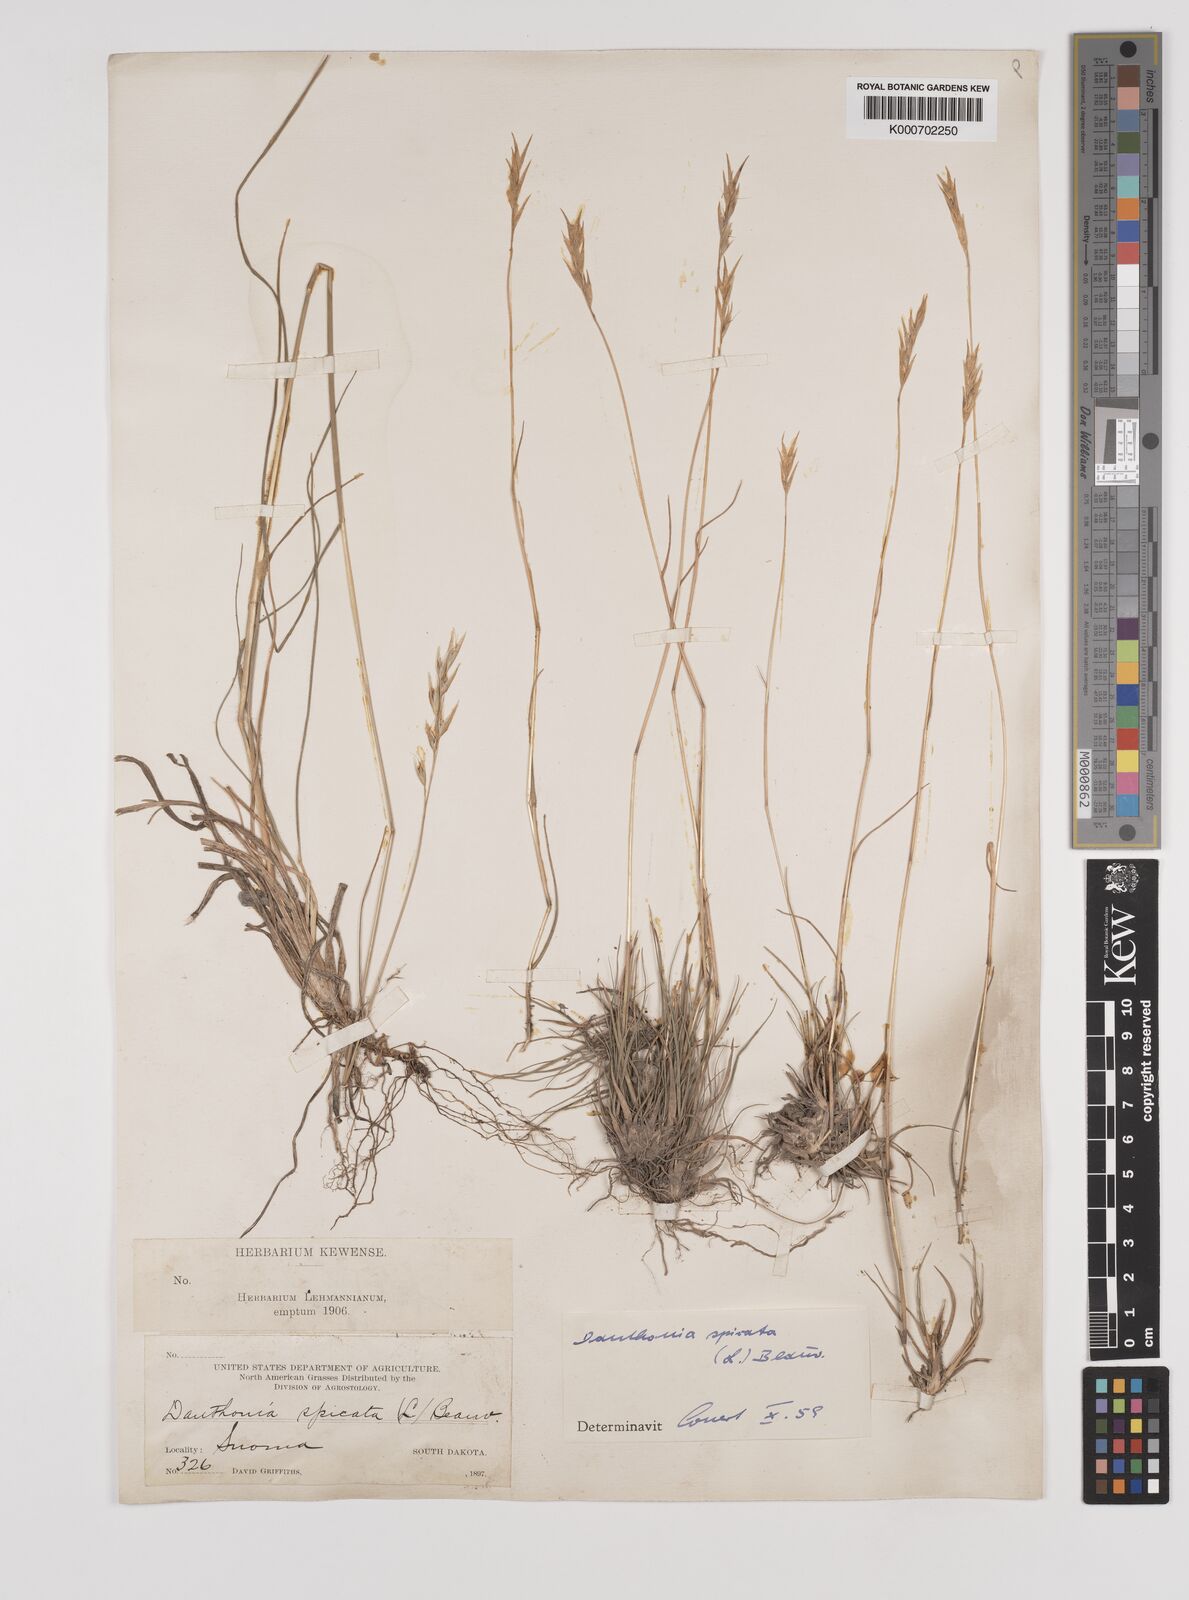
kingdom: Plantae
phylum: Tracheophyta
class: Liliopsida
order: Poales
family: Poaceae
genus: Danthonia
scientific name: Danthonia spicata
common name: Common wild oatgrass
